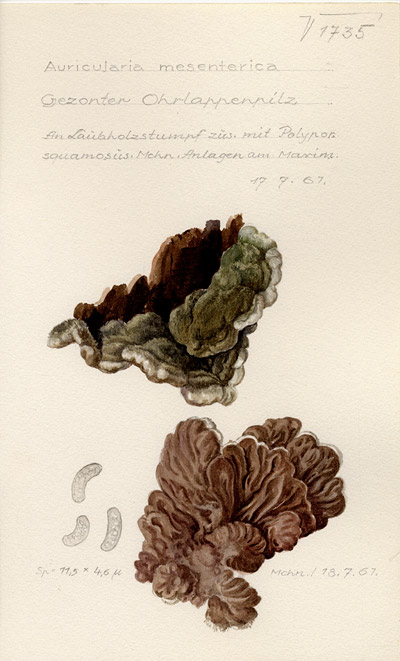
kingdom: Fungi
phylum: Basidiomycota
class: Agaricomycetes
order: Auriculariales
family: Auriculariaceae
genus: Auricularia
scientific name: Auricularia mesenterica
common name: Tripe fungus
